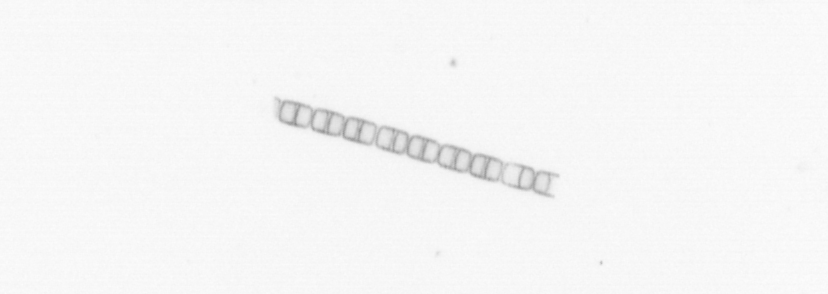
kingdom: Chromista
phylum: Ochrophyta
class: Bacillariophyceae
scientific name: Bacillariophyceae
